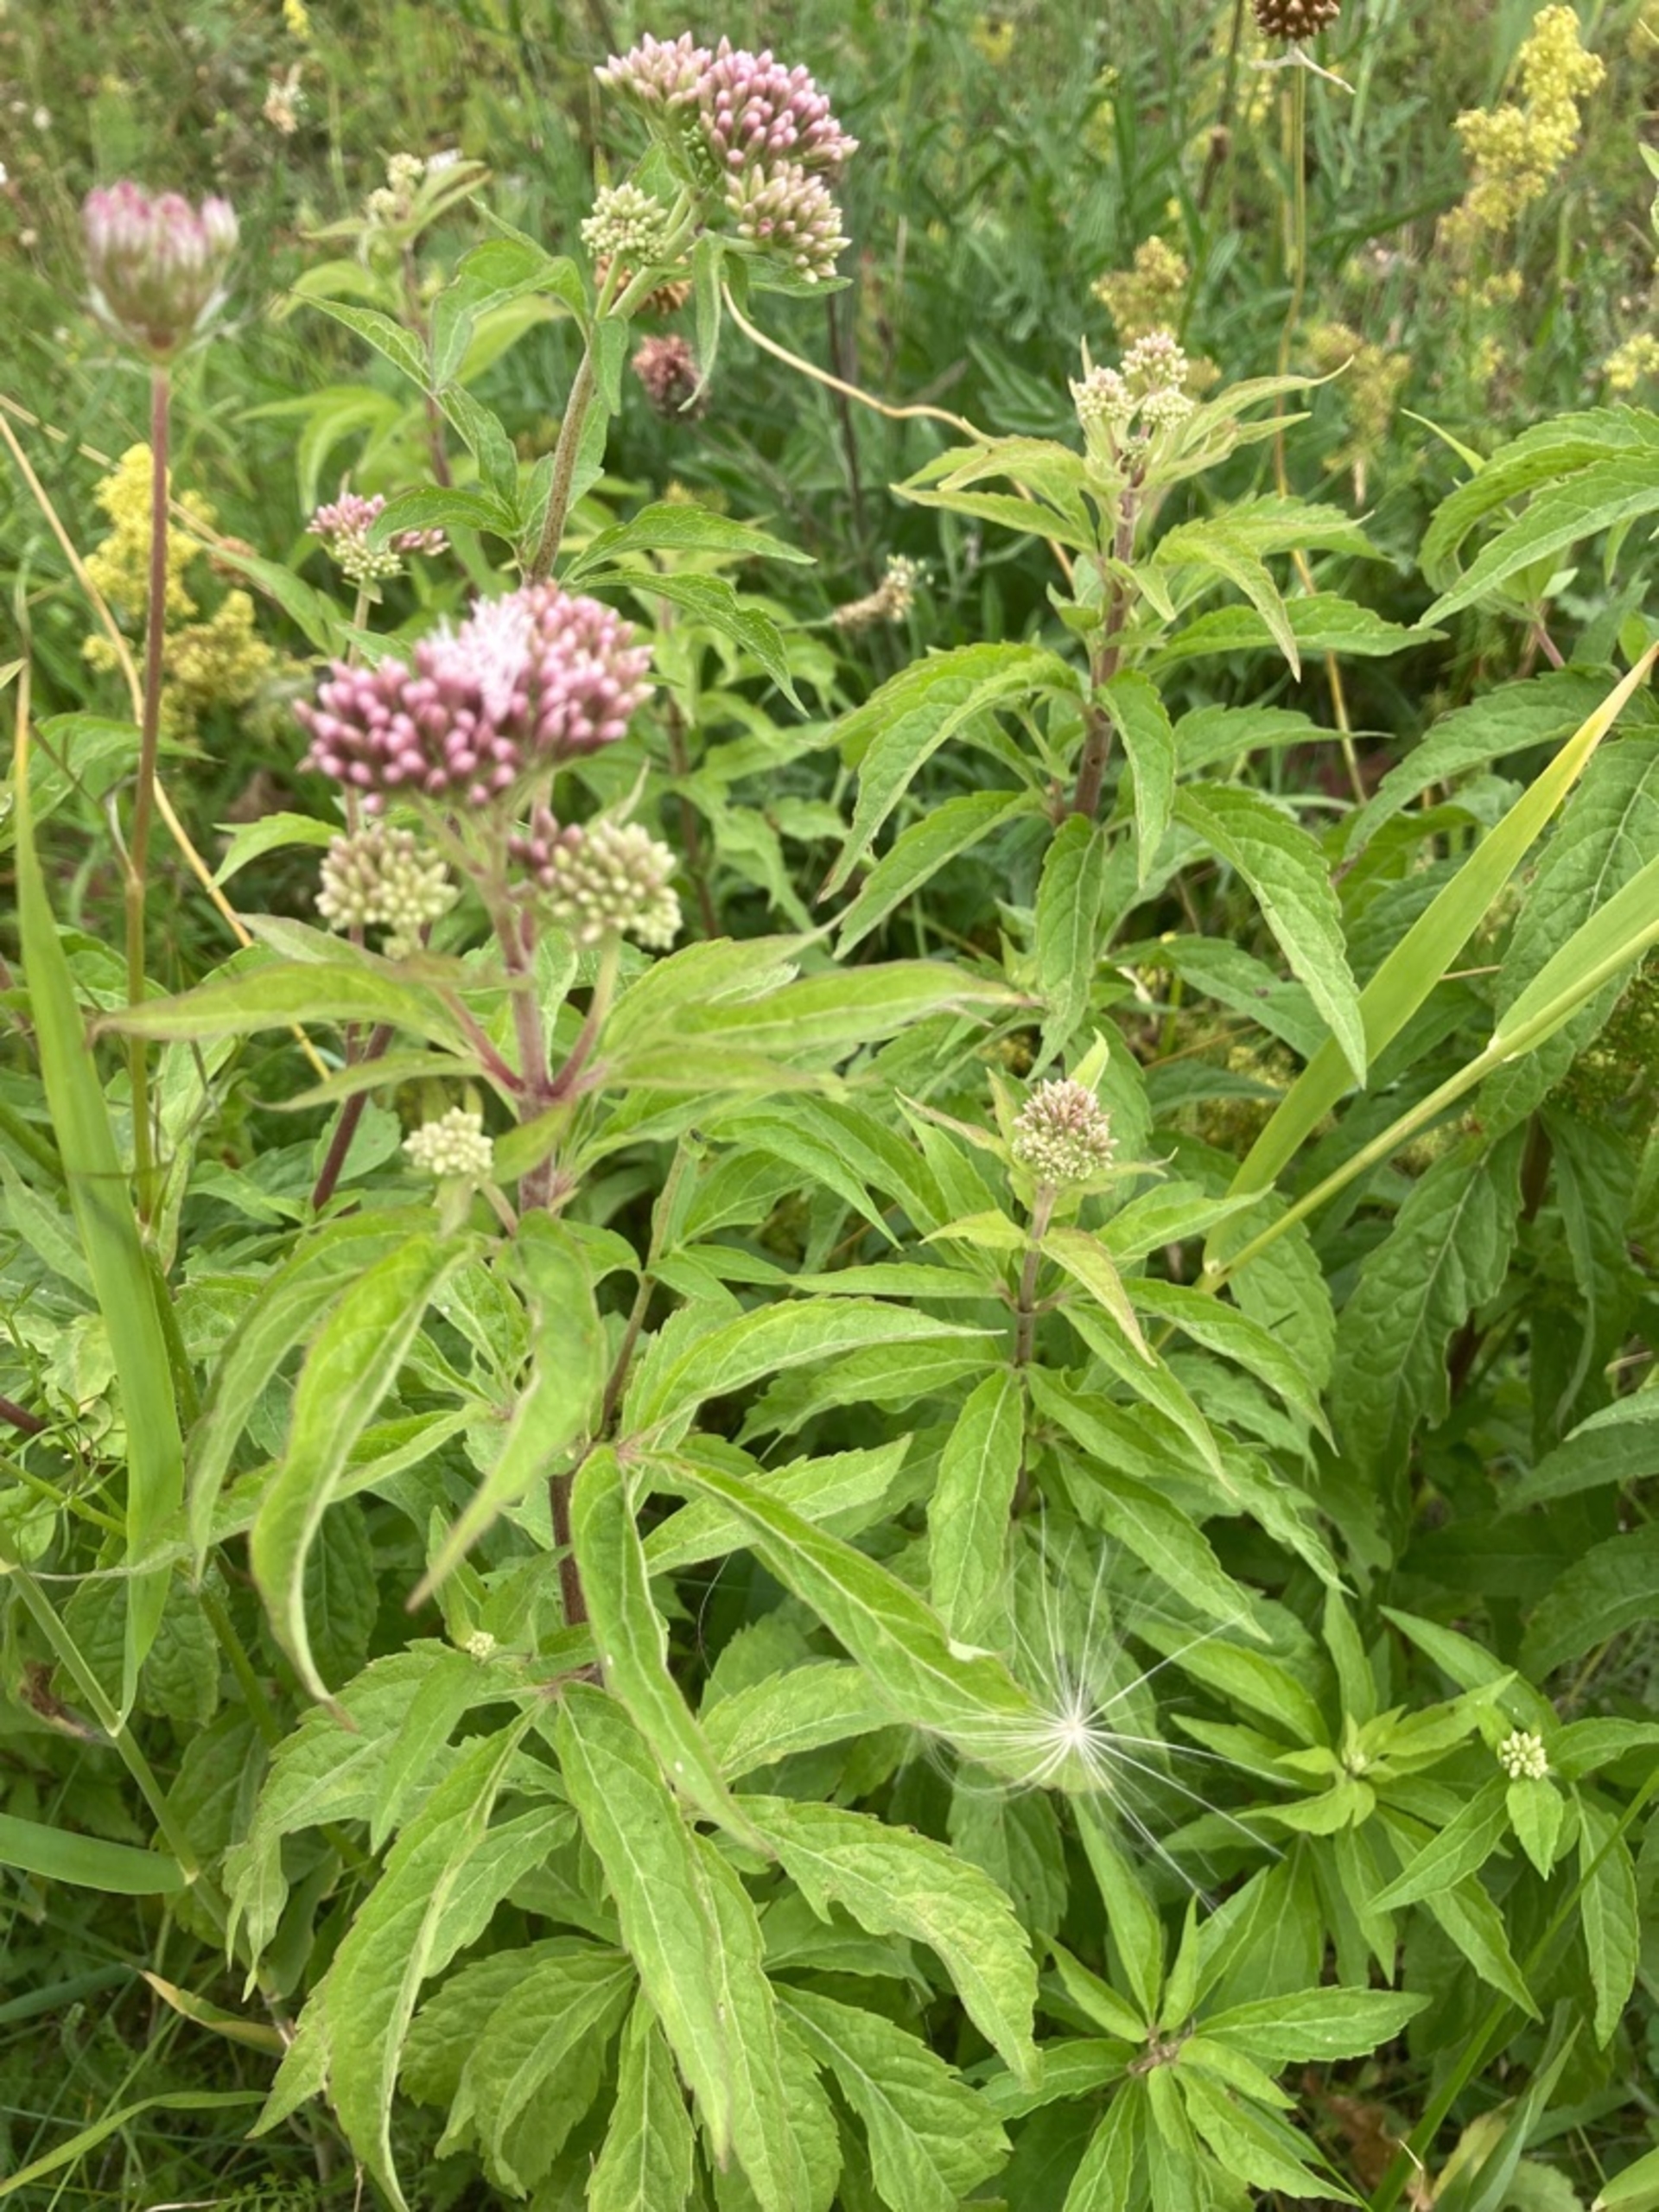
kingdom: Plantae
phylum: Tracheophyta
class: Magnoliopsida
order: Asterales
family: Asteraceae
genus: Eupatorium
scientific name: Eupatorium cannabinum
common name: Hjortetrøst
